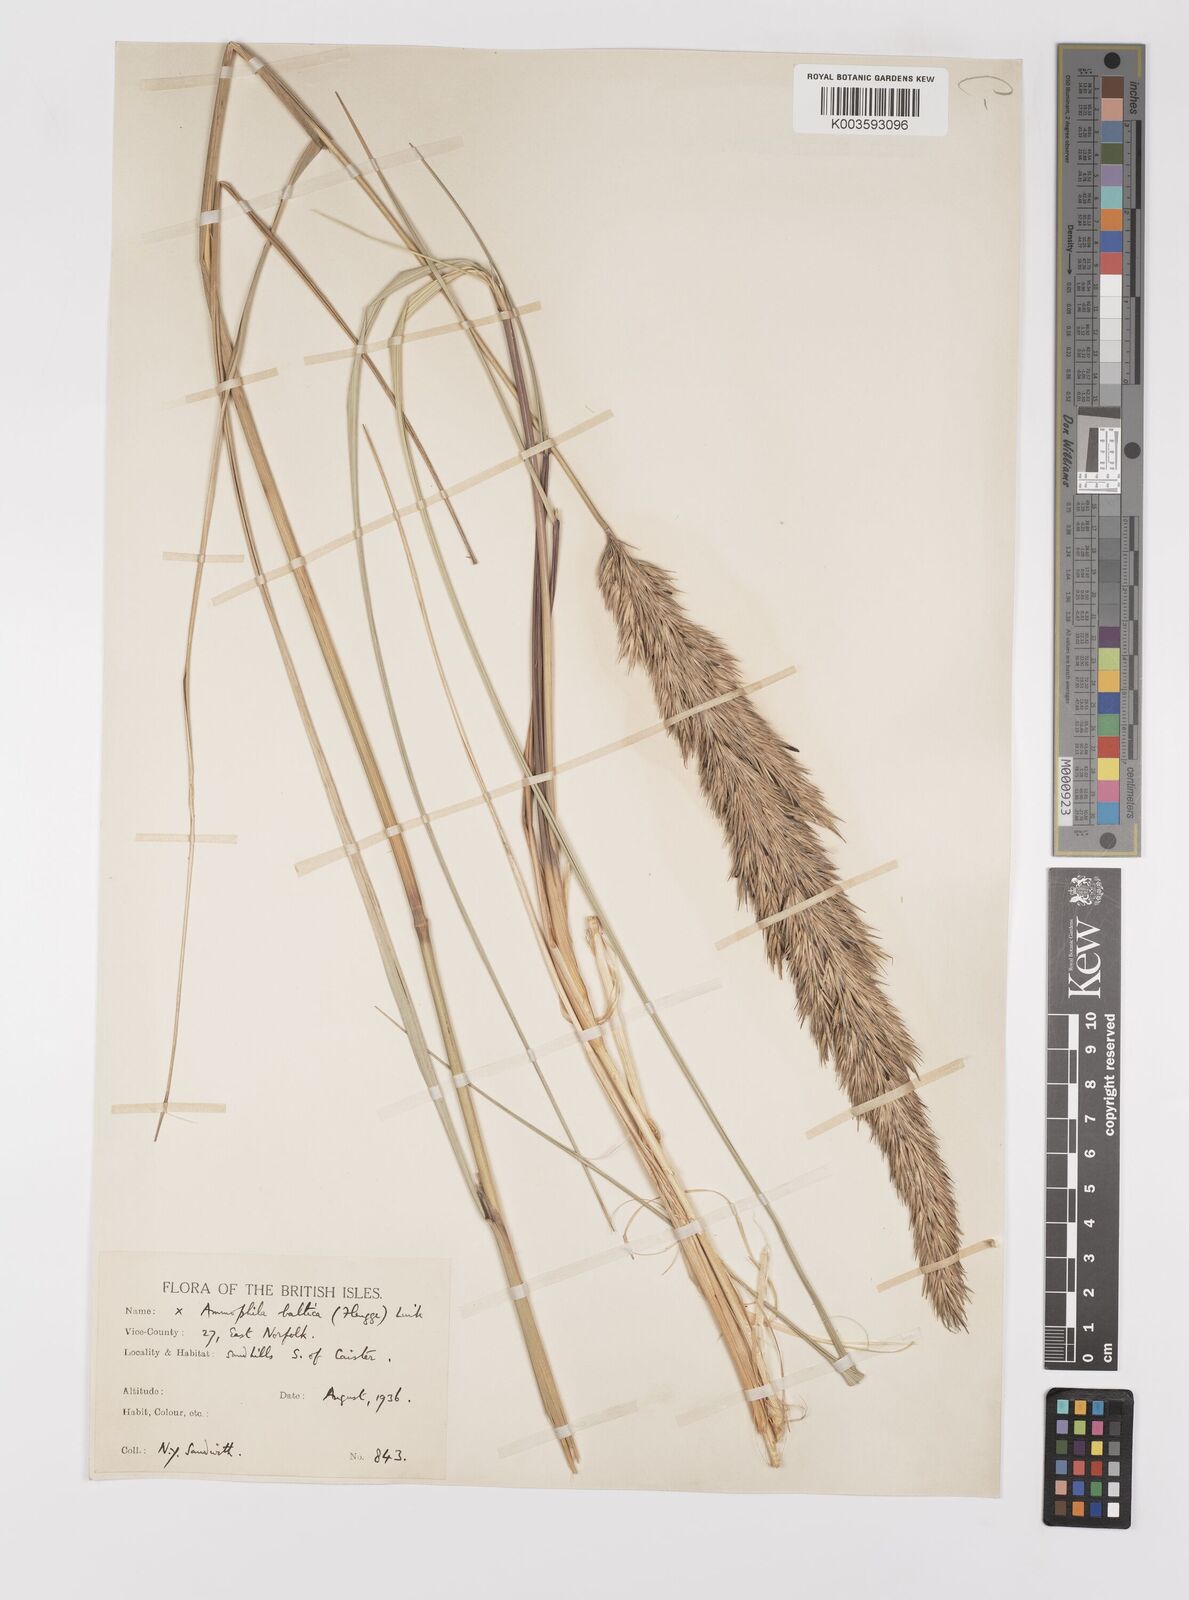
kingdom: Plantae
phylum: Tracheophyta
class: Liliopsida
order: Poales
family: Poaceae
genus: Calamagrostis
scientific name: Calamagrostis baltica
